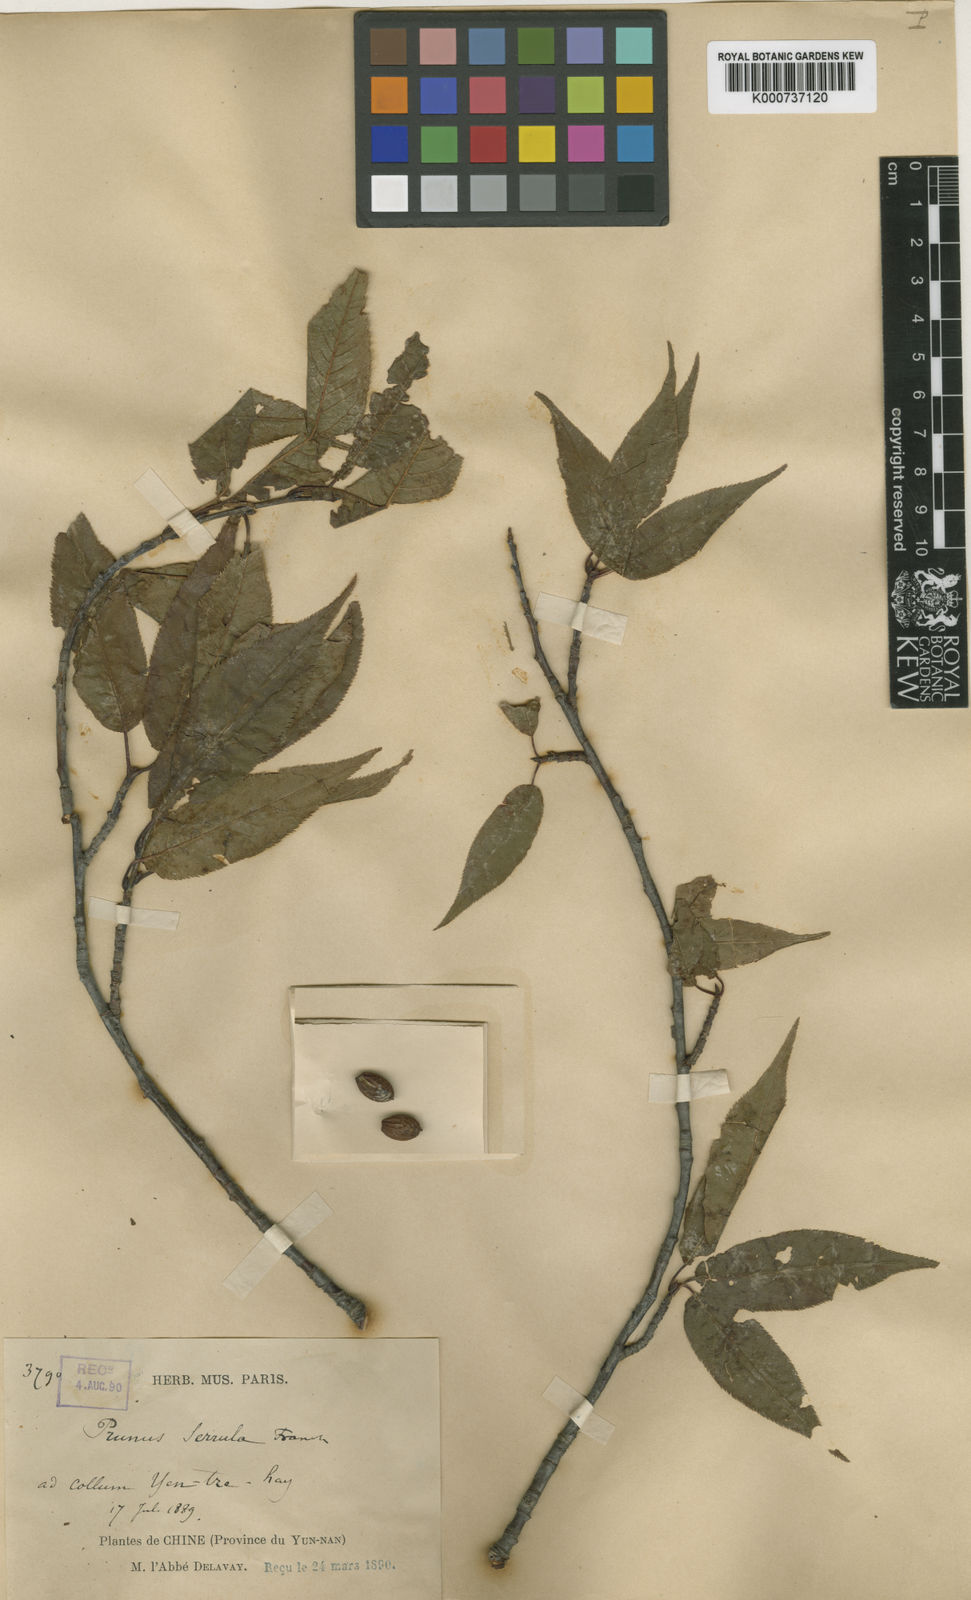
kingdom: Plantae
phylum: Tracheophyta
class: Magnoliopsida
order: Rosales
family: Rosaceae
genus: Prunus
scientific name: Prunus serrula
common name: Birchbark cherry
